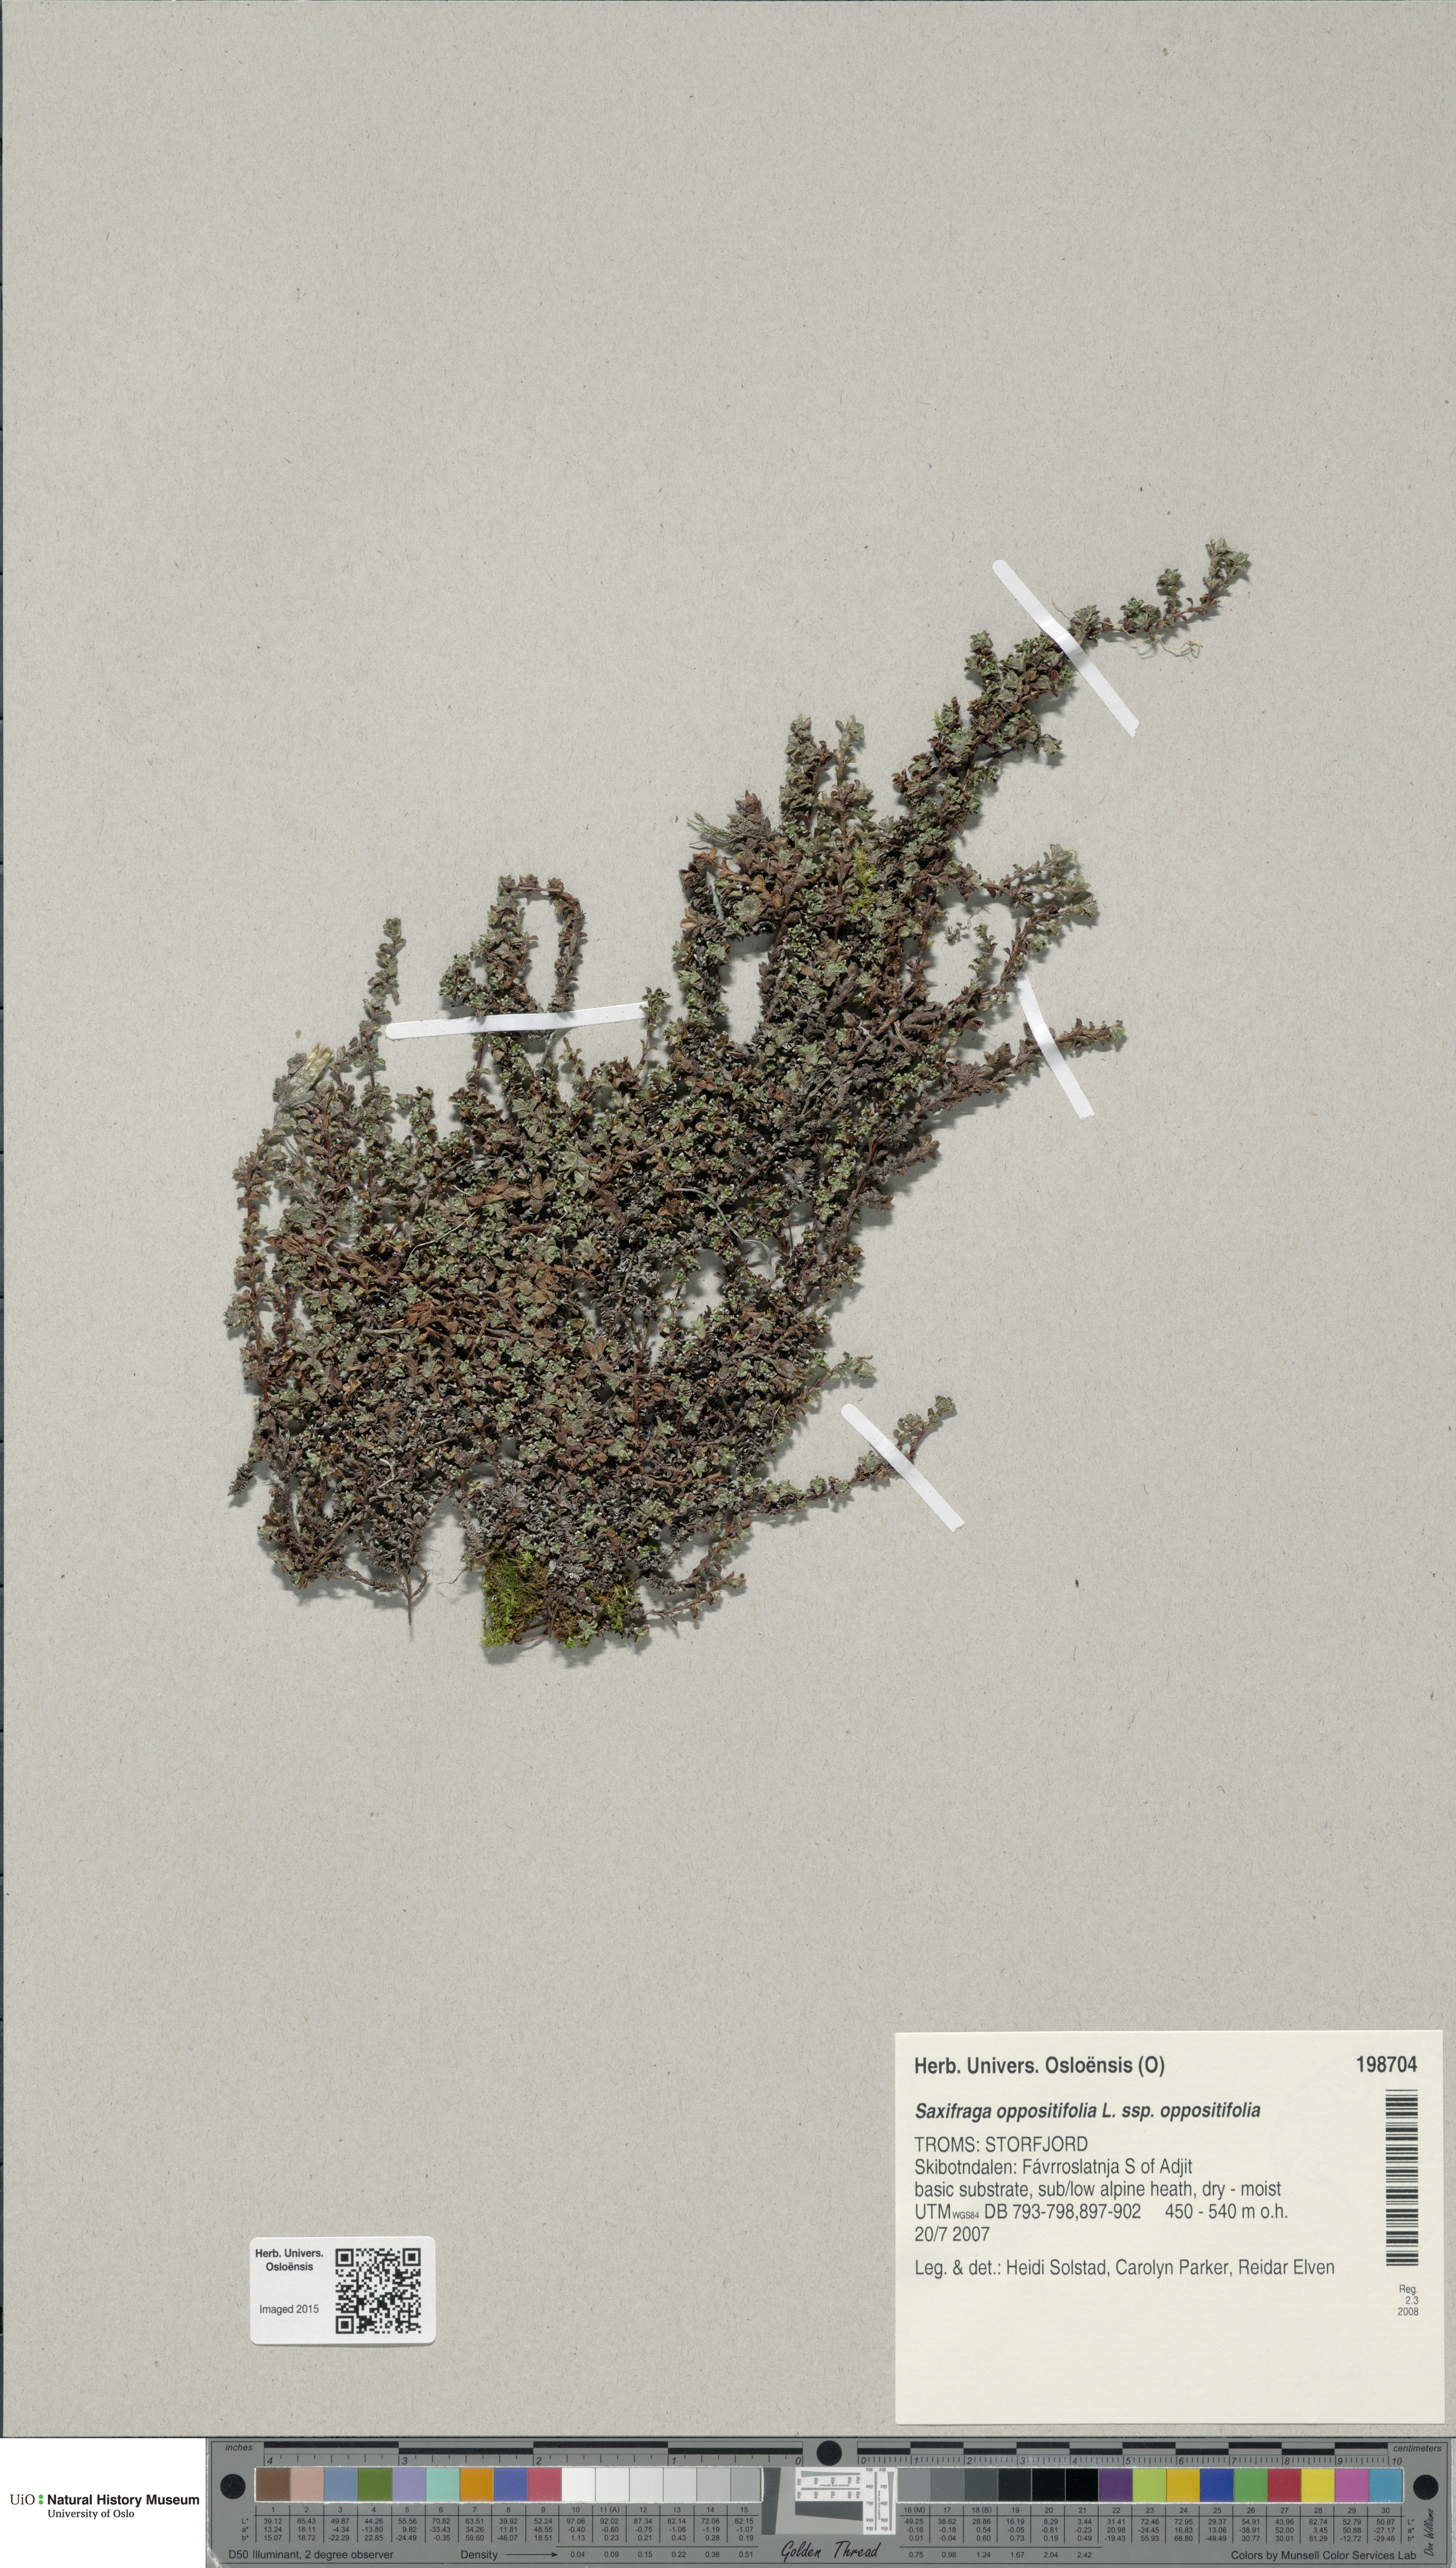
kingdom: Plantae
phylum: Tracheophyta
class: Magnoliopsida
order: Saxifragales
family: Saxifragaceae
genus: Saxifraga
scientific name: Saxifraga oppositifolia
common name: Purple saxifrage
